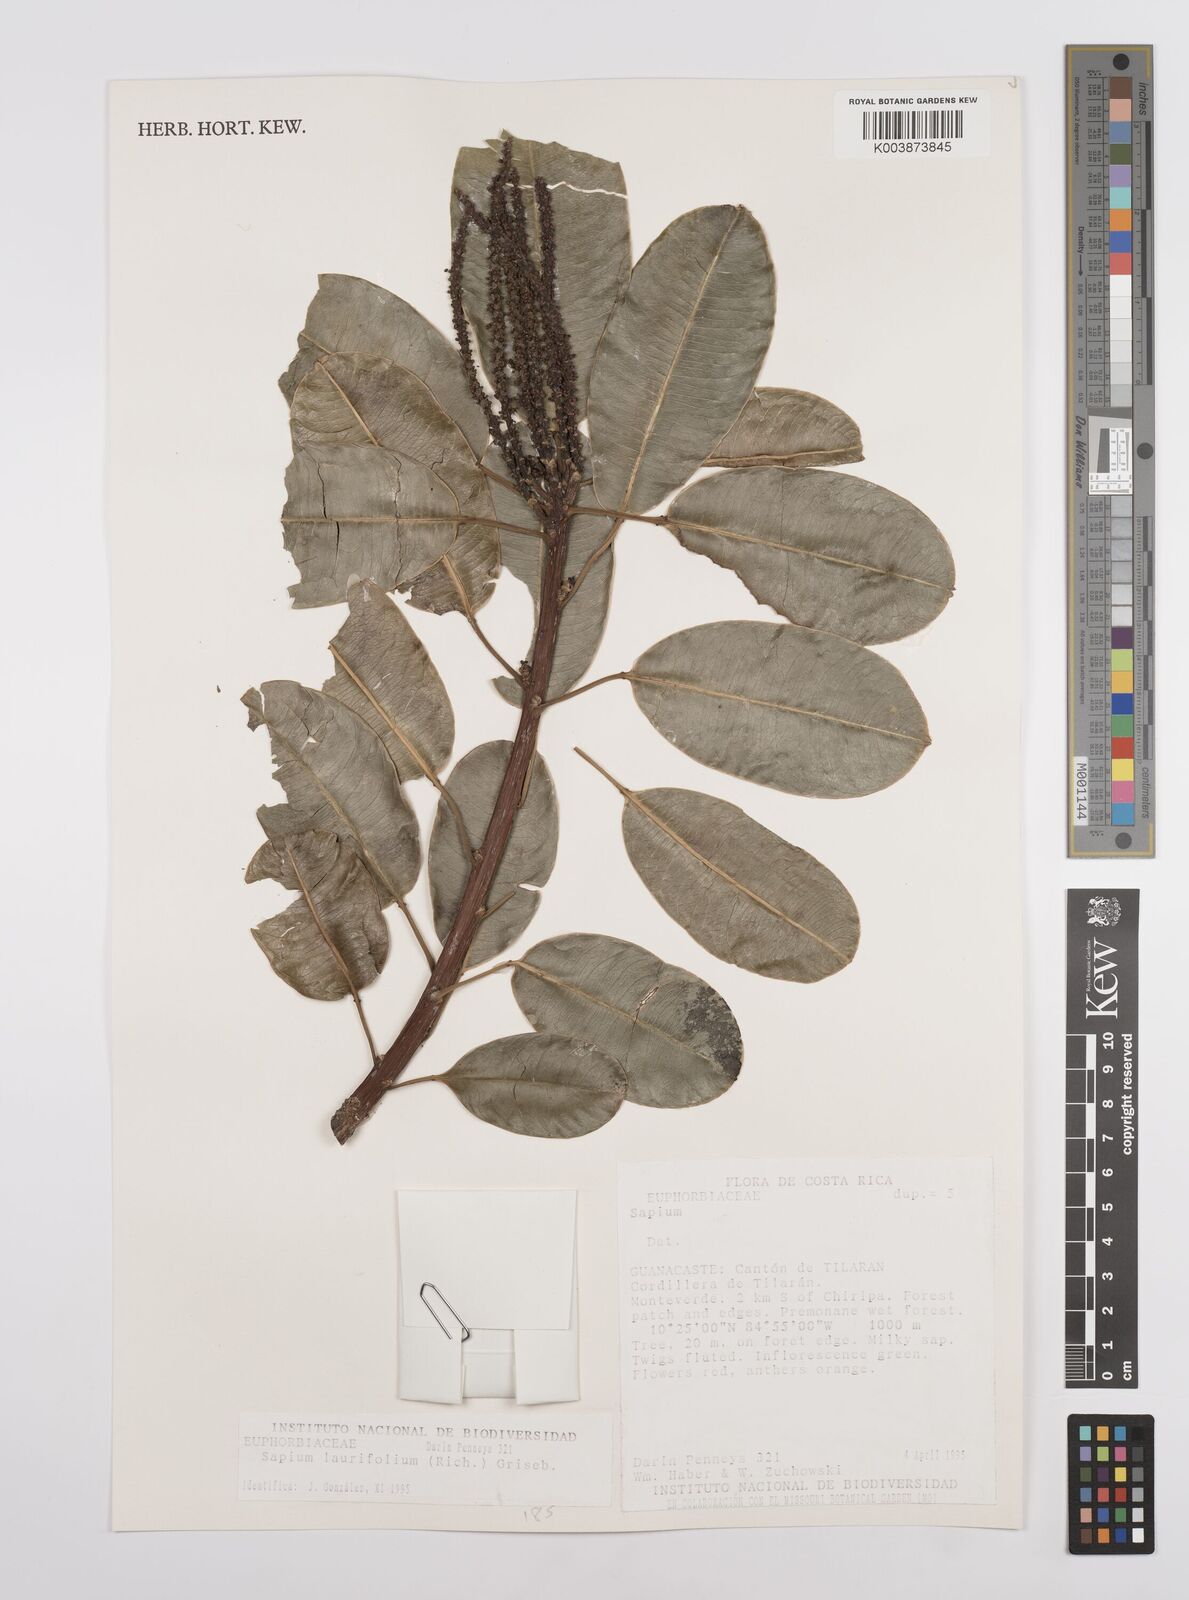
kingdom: Plantae
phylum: Tracheophyta
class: Magnoliopsida
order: Malpighiales
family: Euphorbiaceae
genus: Sapium
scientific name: Sapium laurifolium
